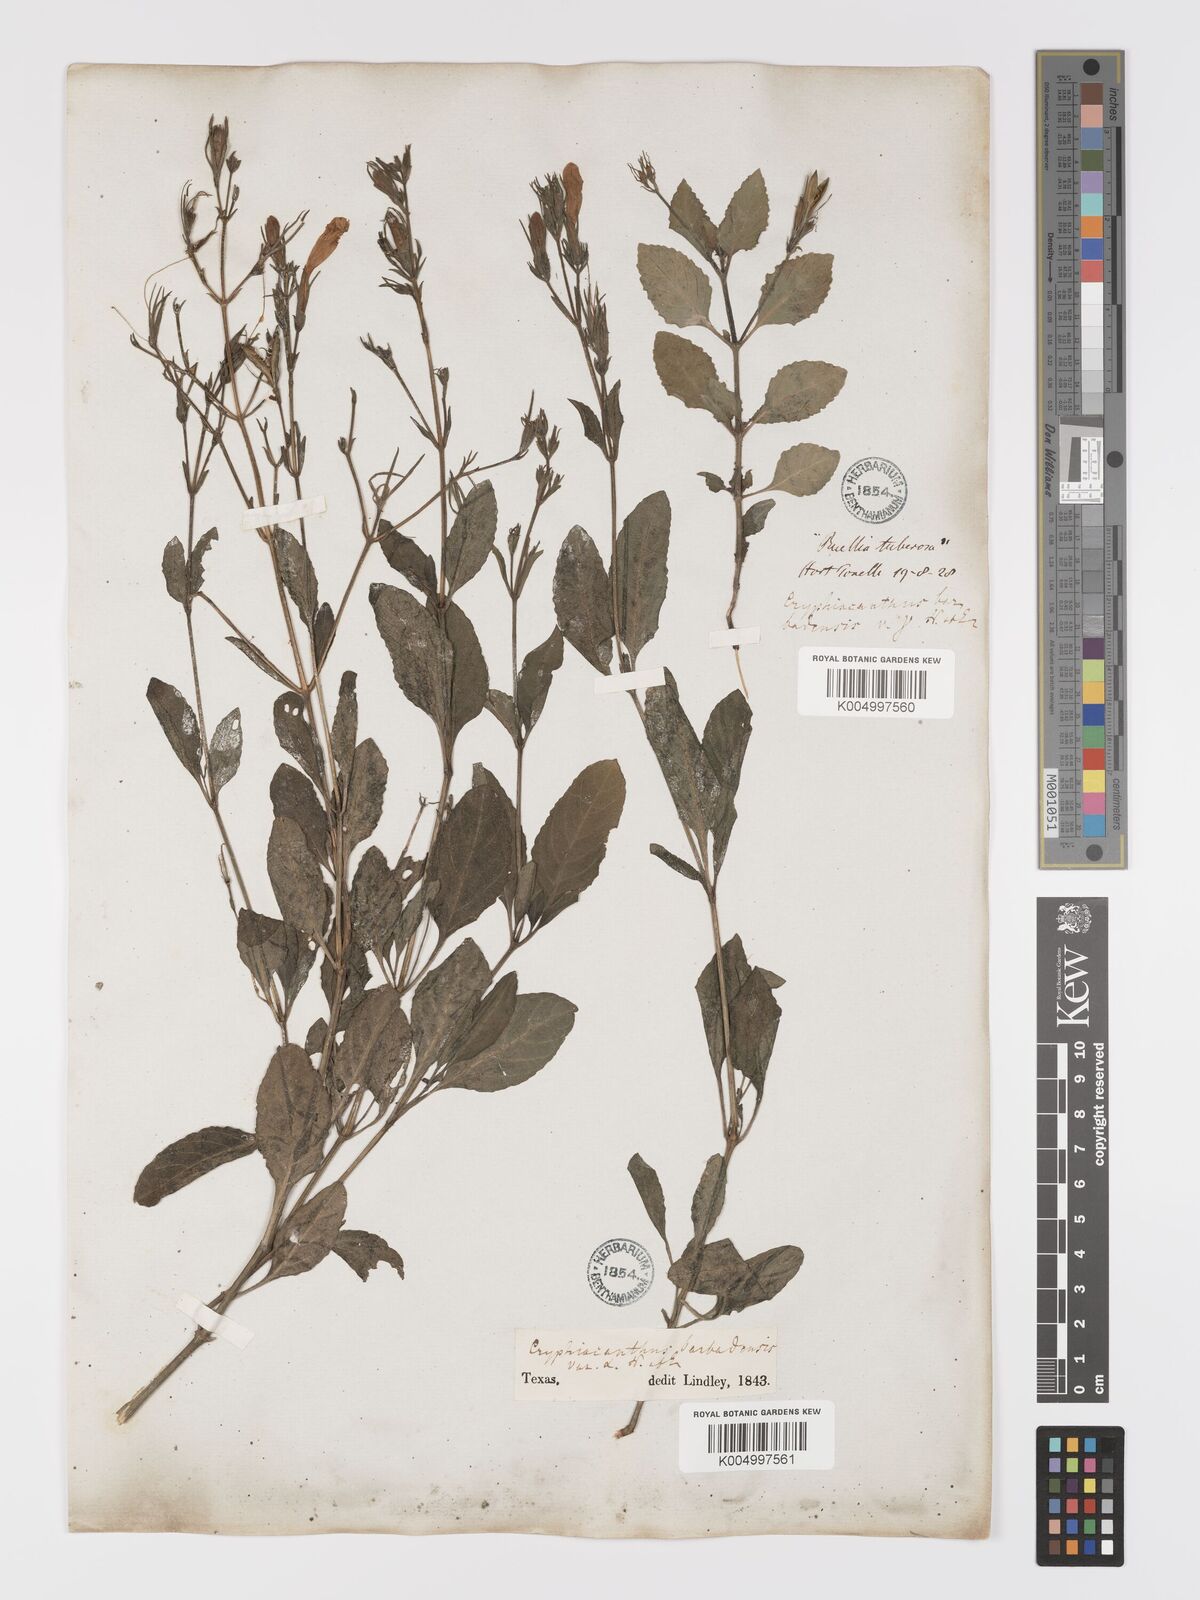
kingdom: Plantae
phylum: Tracheophyta
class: Magnoliopsida
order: Lamiales
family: Acanthaceae
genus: Ruellia
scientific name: Ruellia tuberosa
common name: Devil's bit
